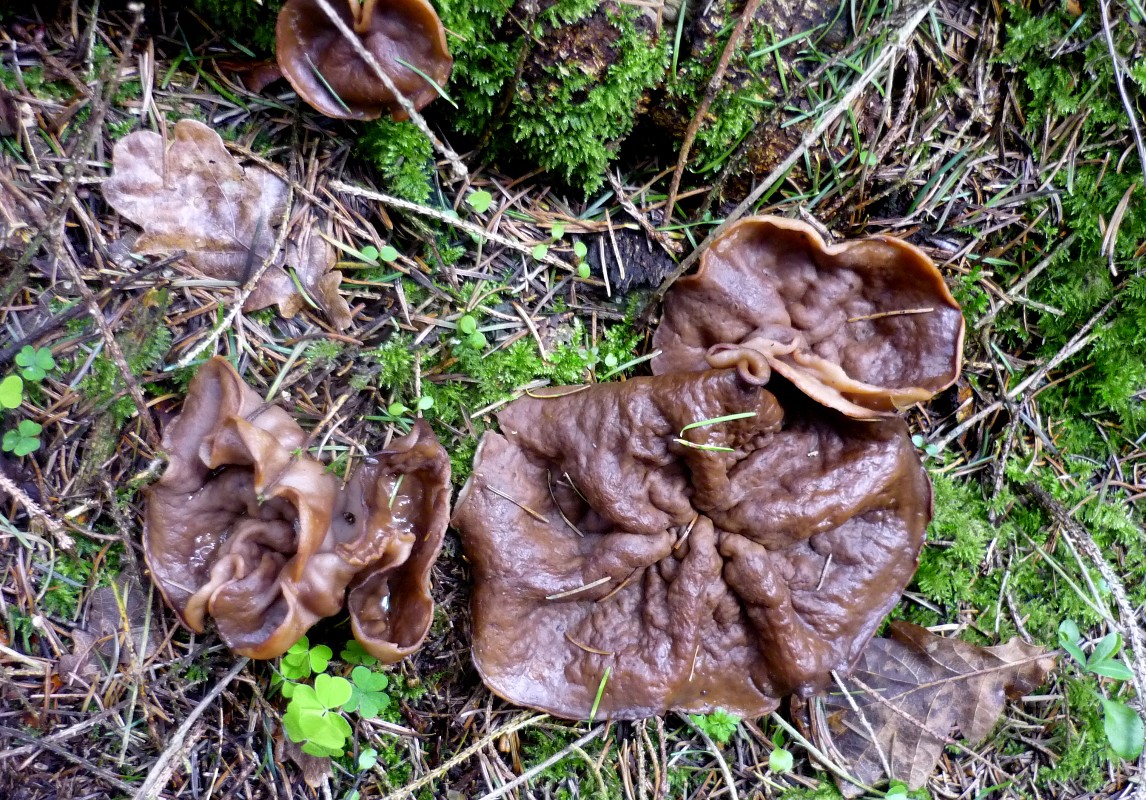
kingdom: Fungi
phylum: Ascomycota
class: Pezizomycetes
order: Pezizales
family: Discinaceae
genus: Discina
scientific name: Discina ancilis
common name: udbredt stenmorkel
